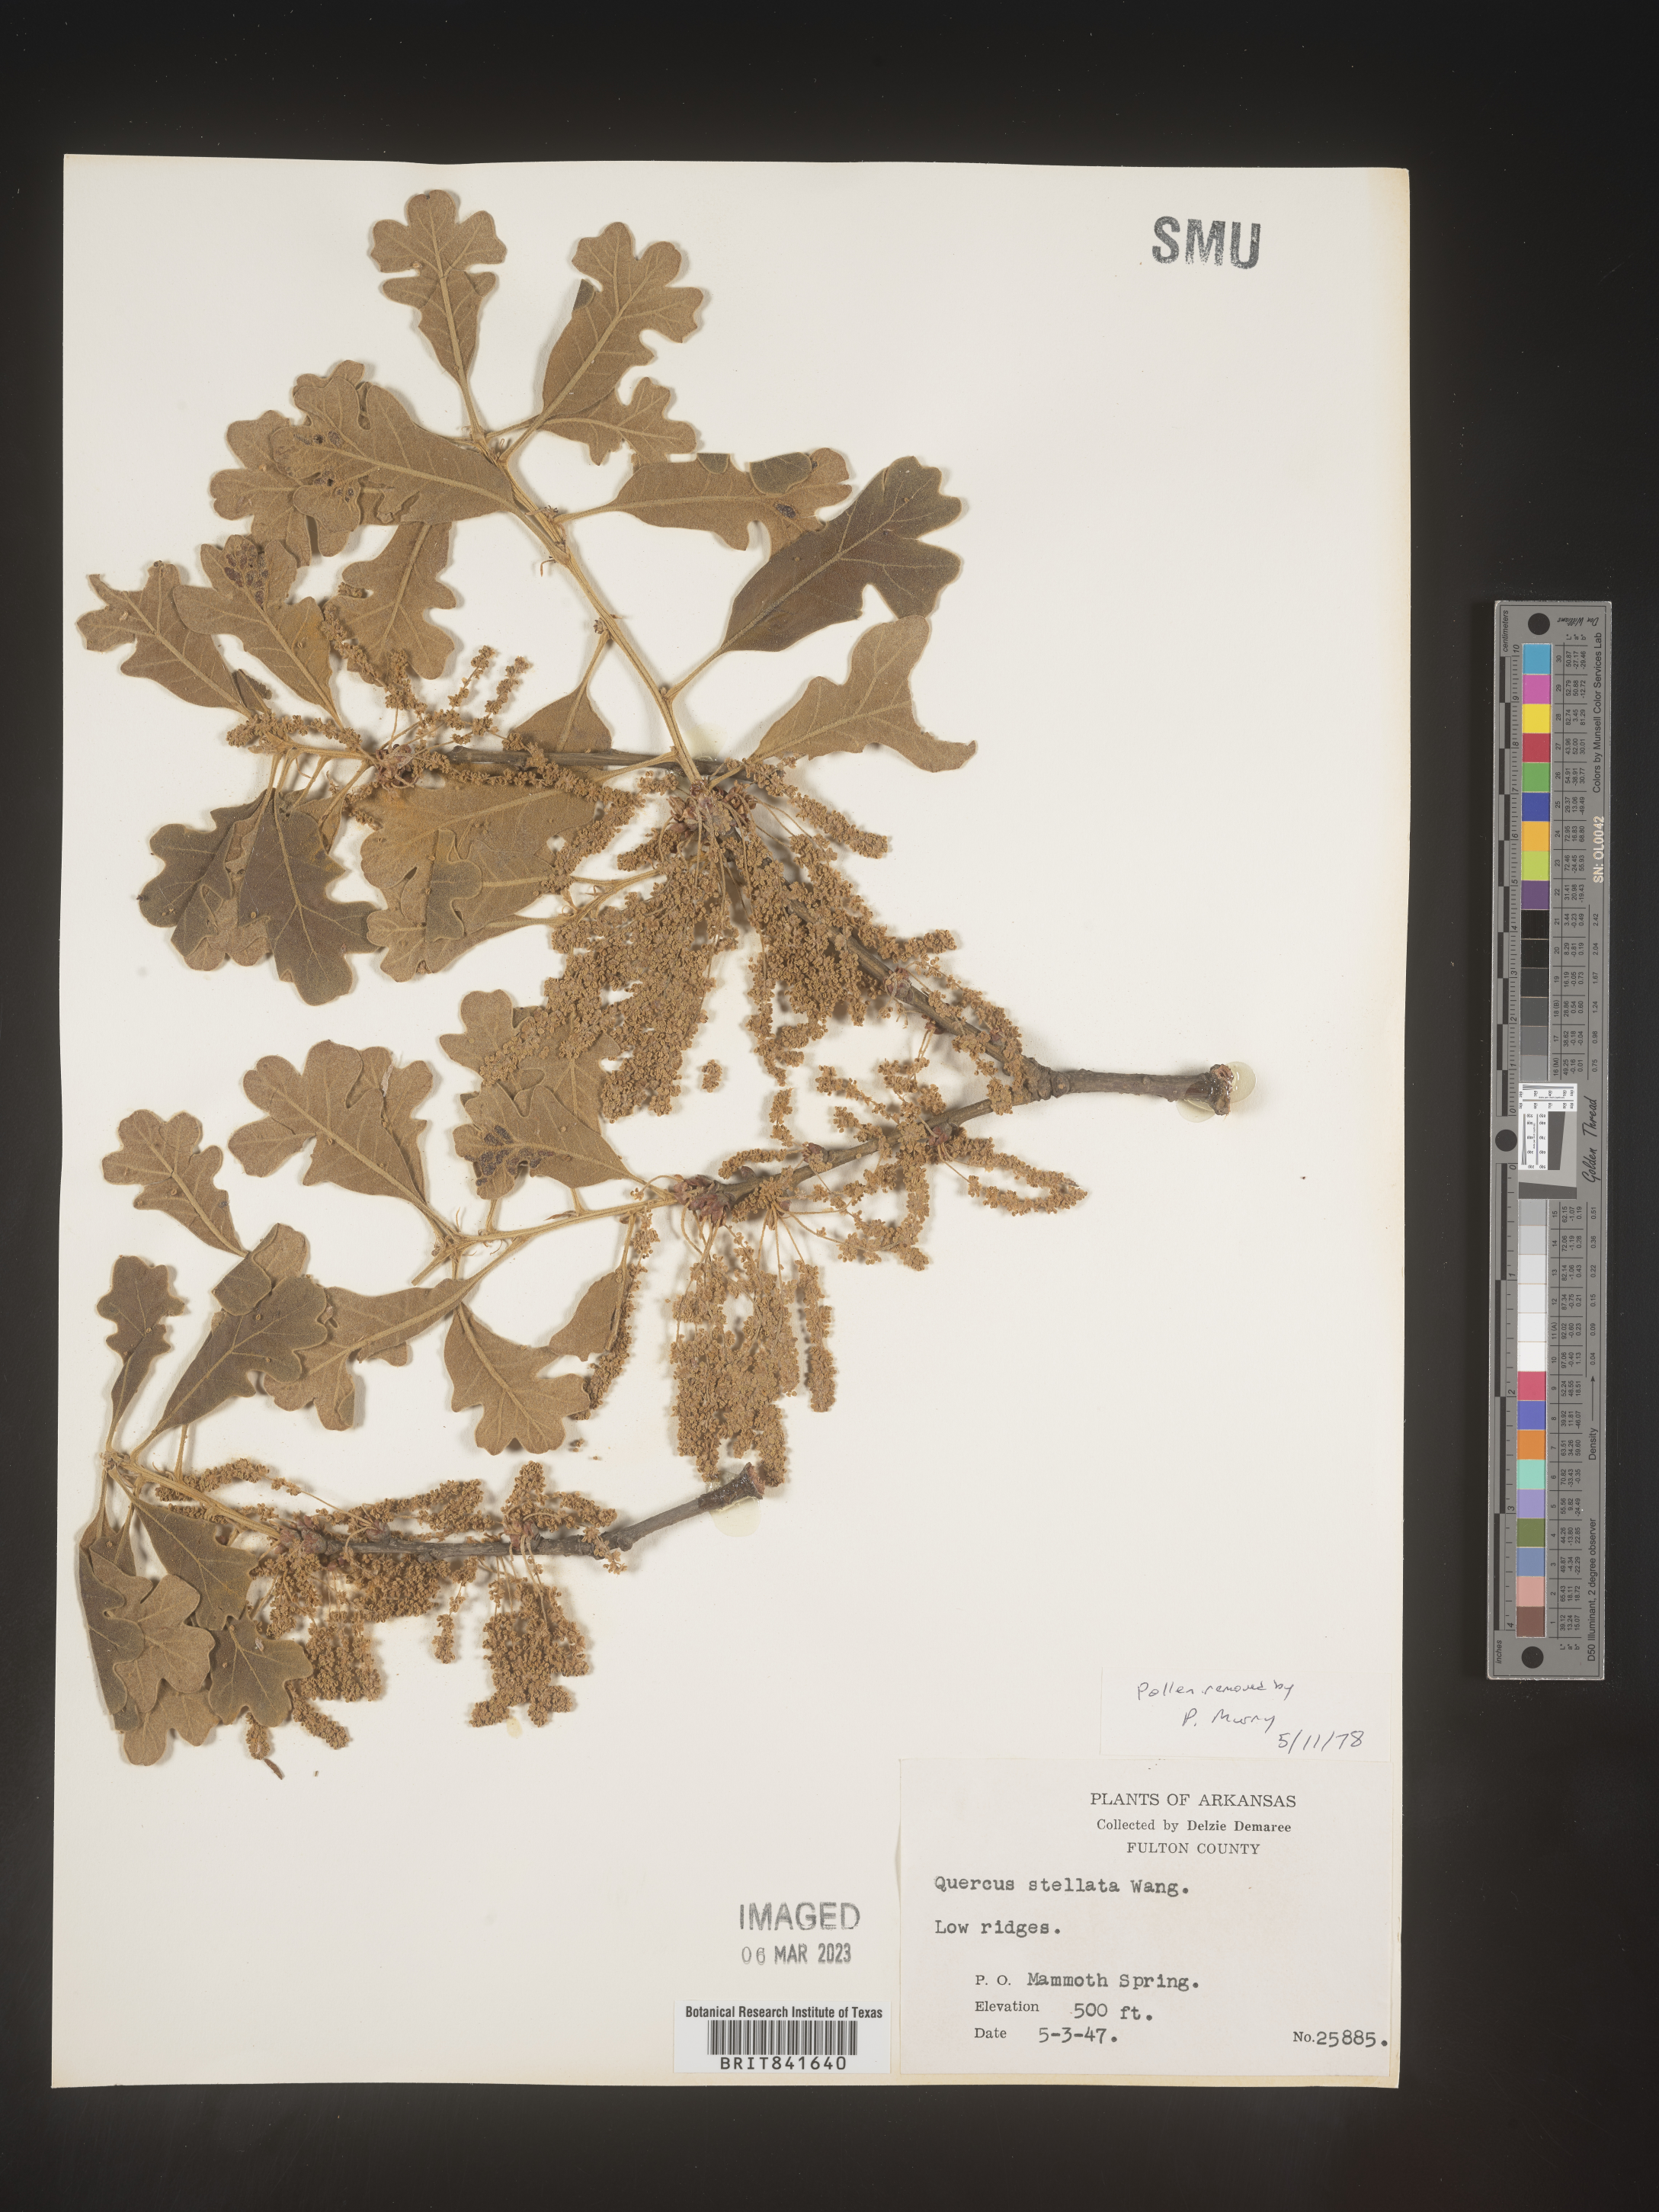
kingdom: Plantae
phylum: Tracheophyta
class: Magnoliopsida
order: Fagales
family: Fagaceae
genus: Quercus
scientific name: Quercus stellata
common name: Post oak
